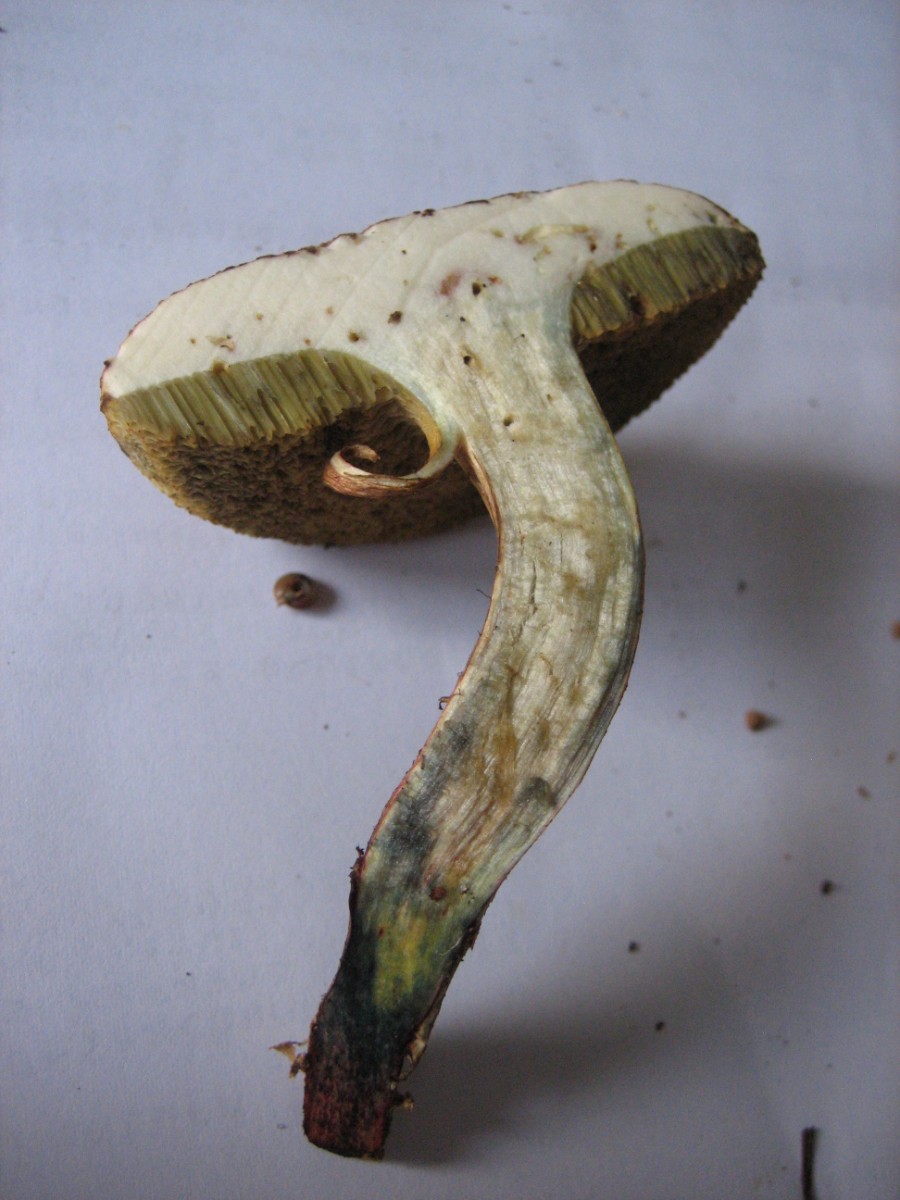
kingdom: Fungi
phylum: Basidiomycota
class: Agaricomycetes
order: Boletales
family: Boletaceae
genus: Xerocomellus
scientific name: Xerocomellus cisalpinus
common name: finsprukken rørhat
